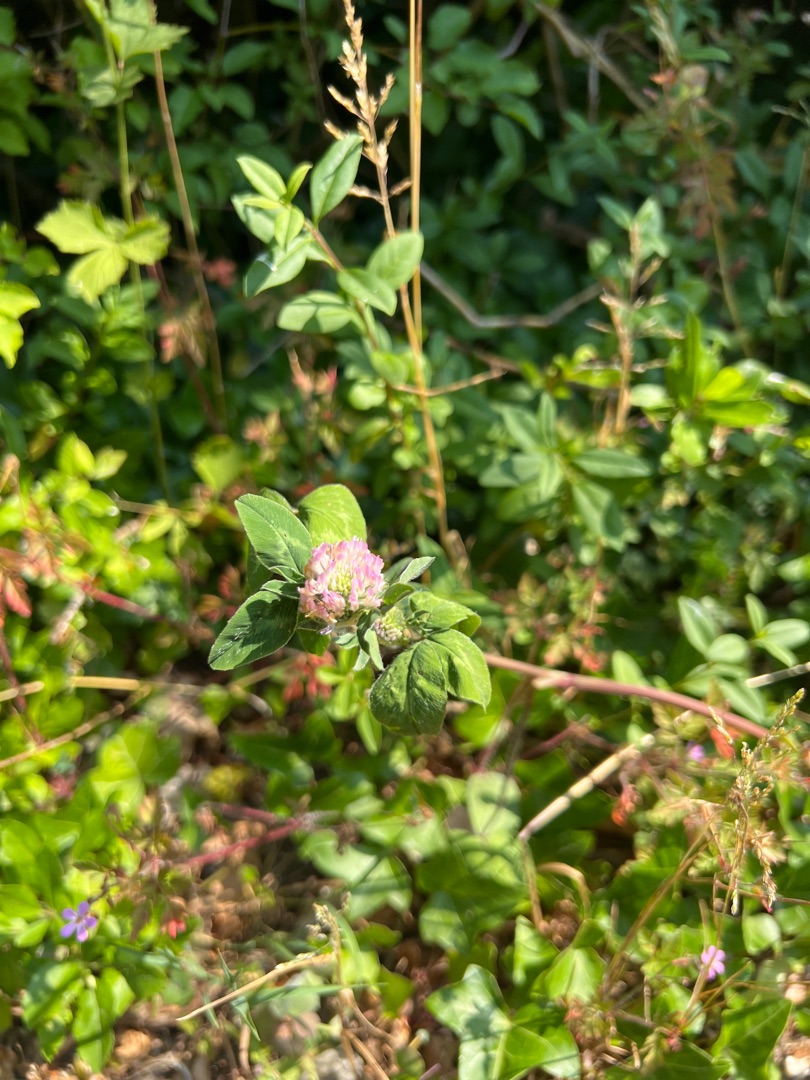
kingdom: Plantae
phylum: Tracheophyta
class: Magnoliopsida
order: Fabales
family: Fabaceae
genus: Trifolium
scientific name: Trifolium pratense
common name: Rød-kløver
